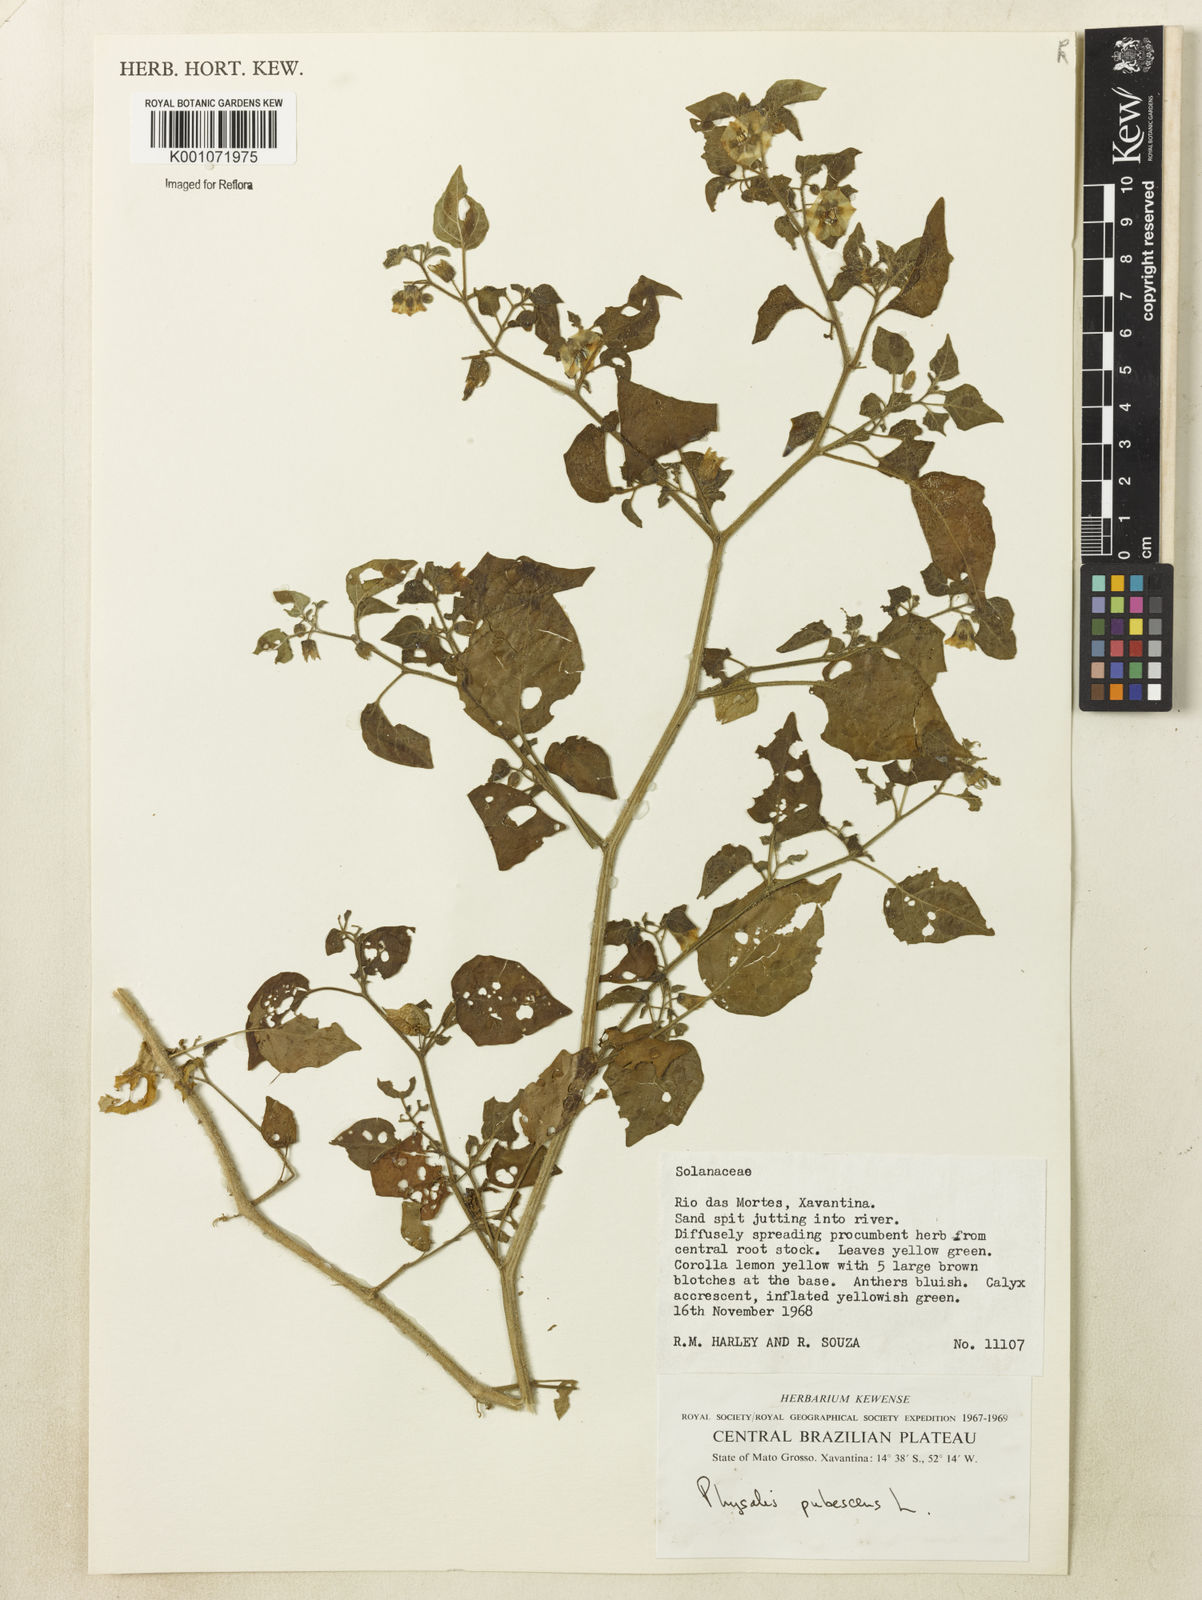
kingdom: Plantae
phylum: Tracheophyta
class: Magnoliopsida
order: Solanales
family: Solanaceae
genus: Physalis
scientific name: Physalis pubescens
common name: Downy ground-cherry
